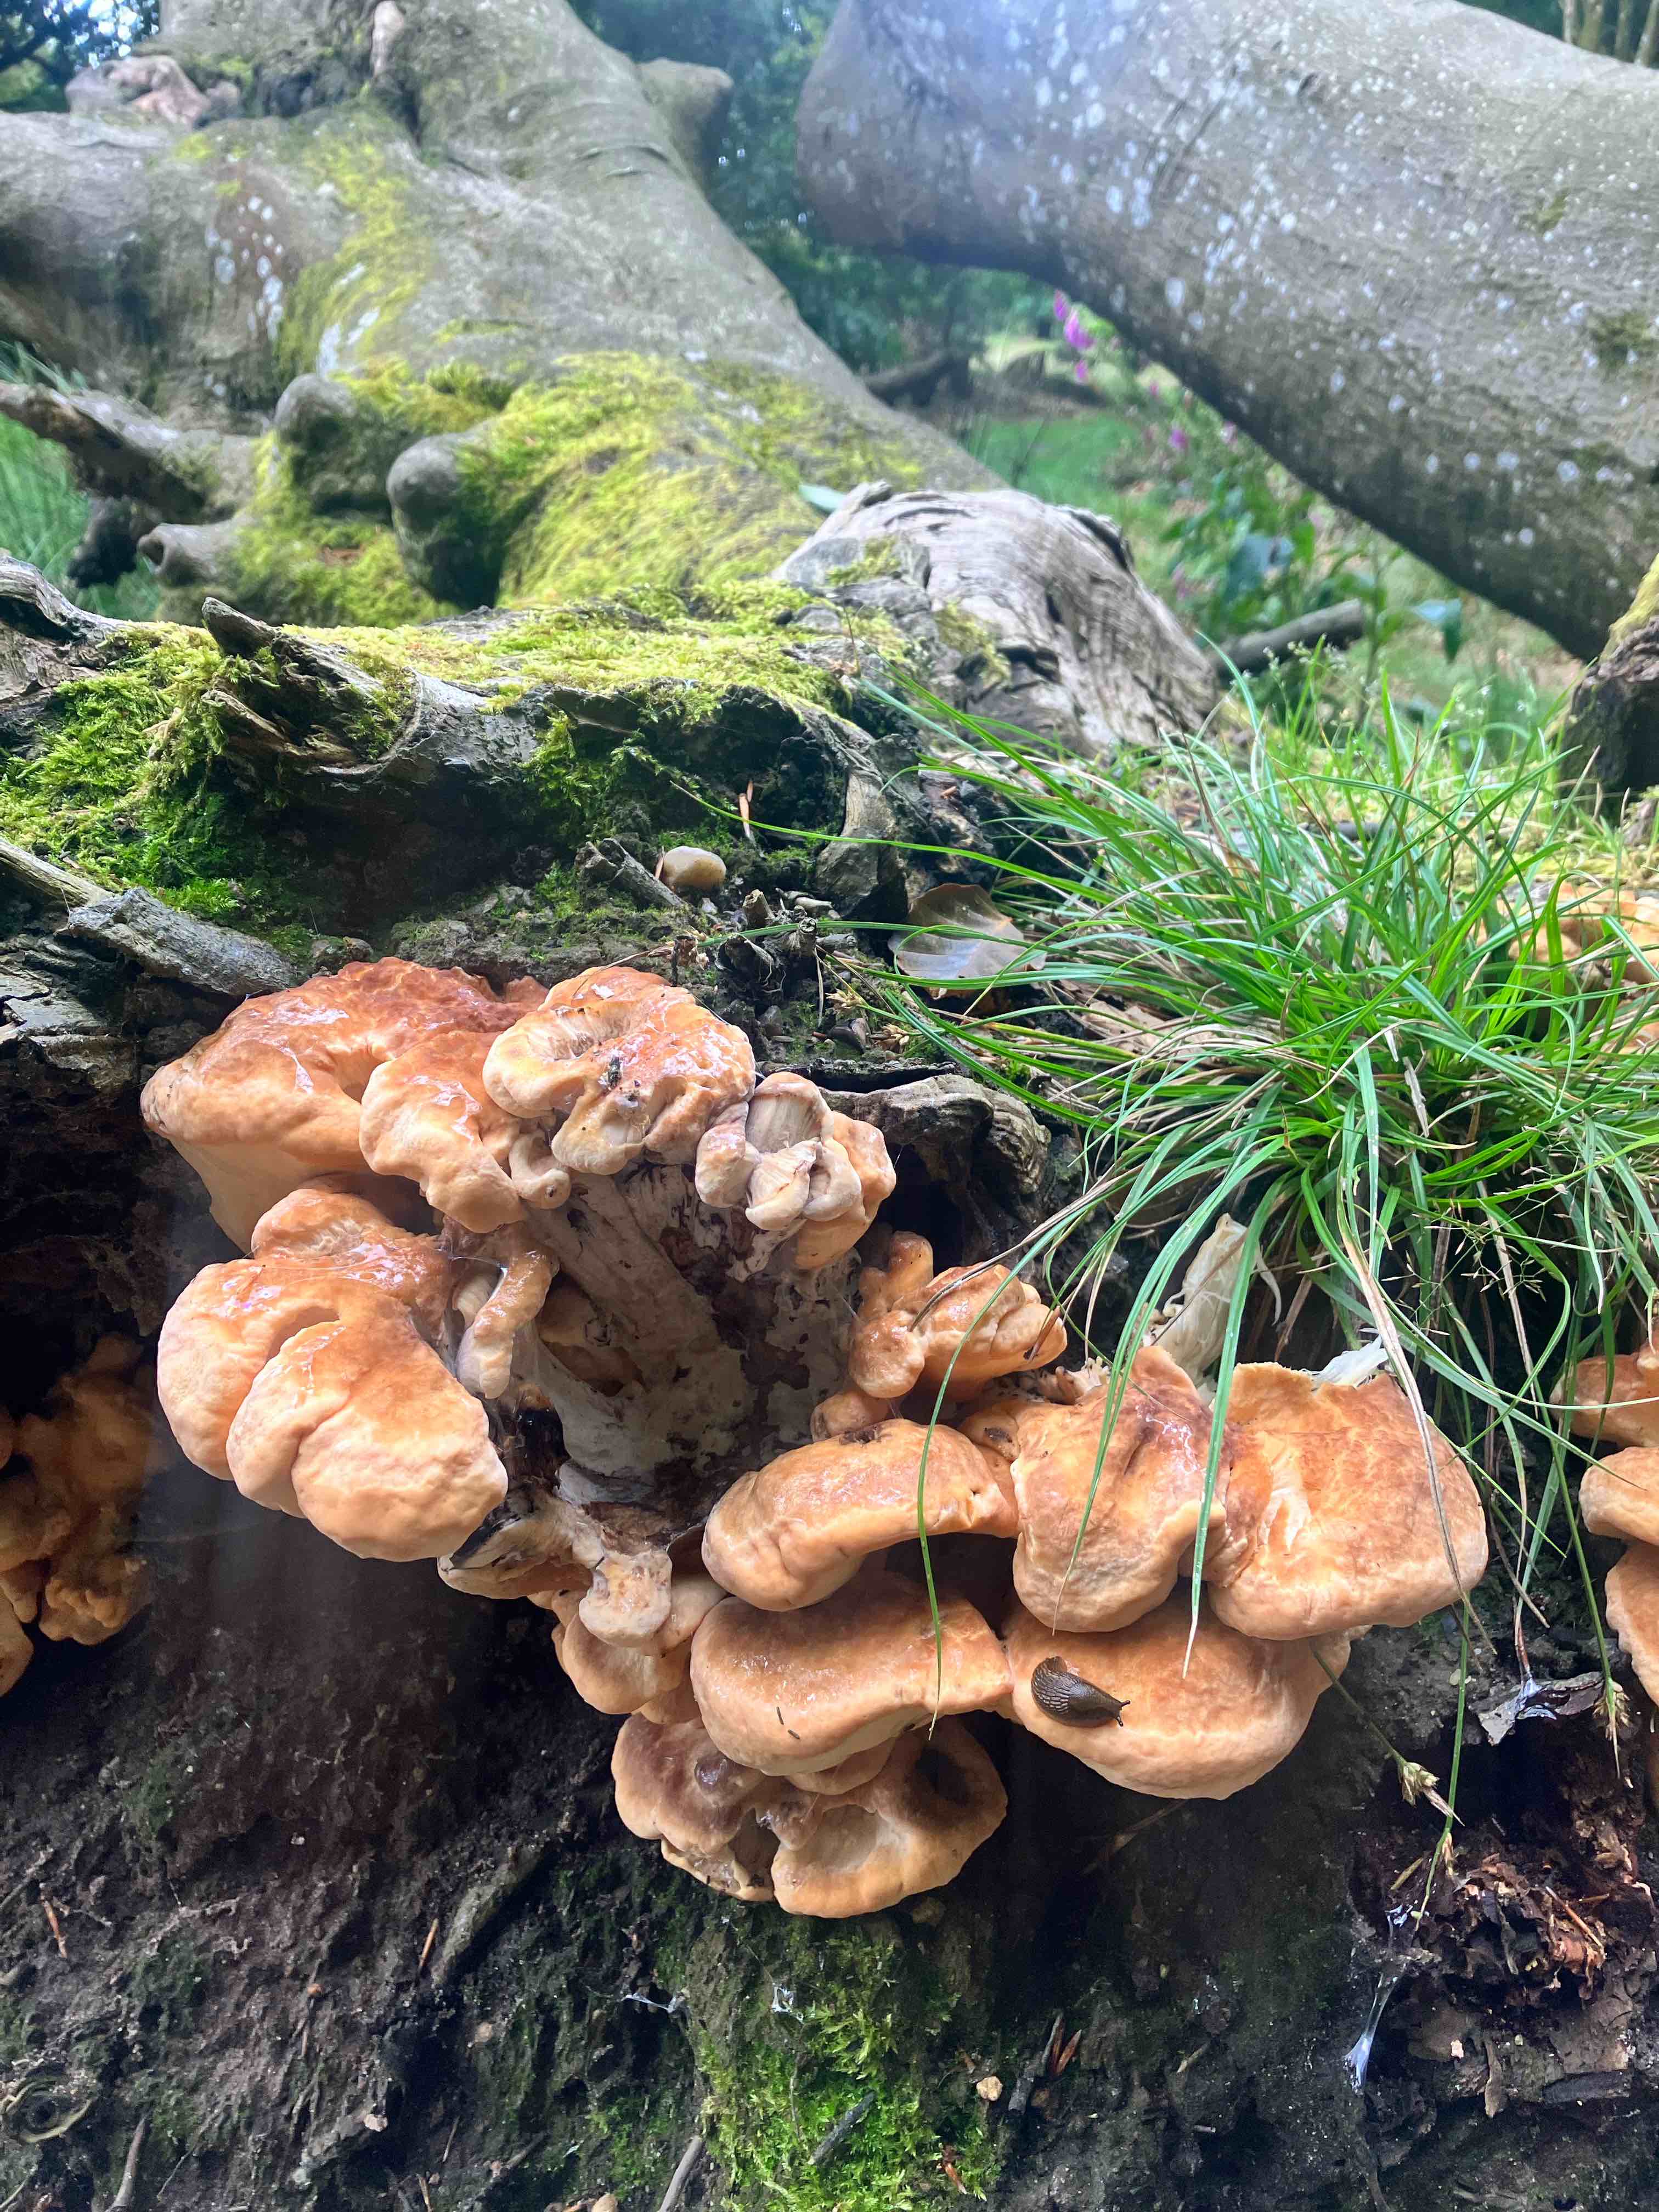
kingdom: Fungi
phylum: Basidiomycota
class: Agaricomycetes
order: Polyporales
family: Meripilaceae
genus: Meripilus
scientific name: Meripilus giganteus
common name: kæmpeporesvamp
